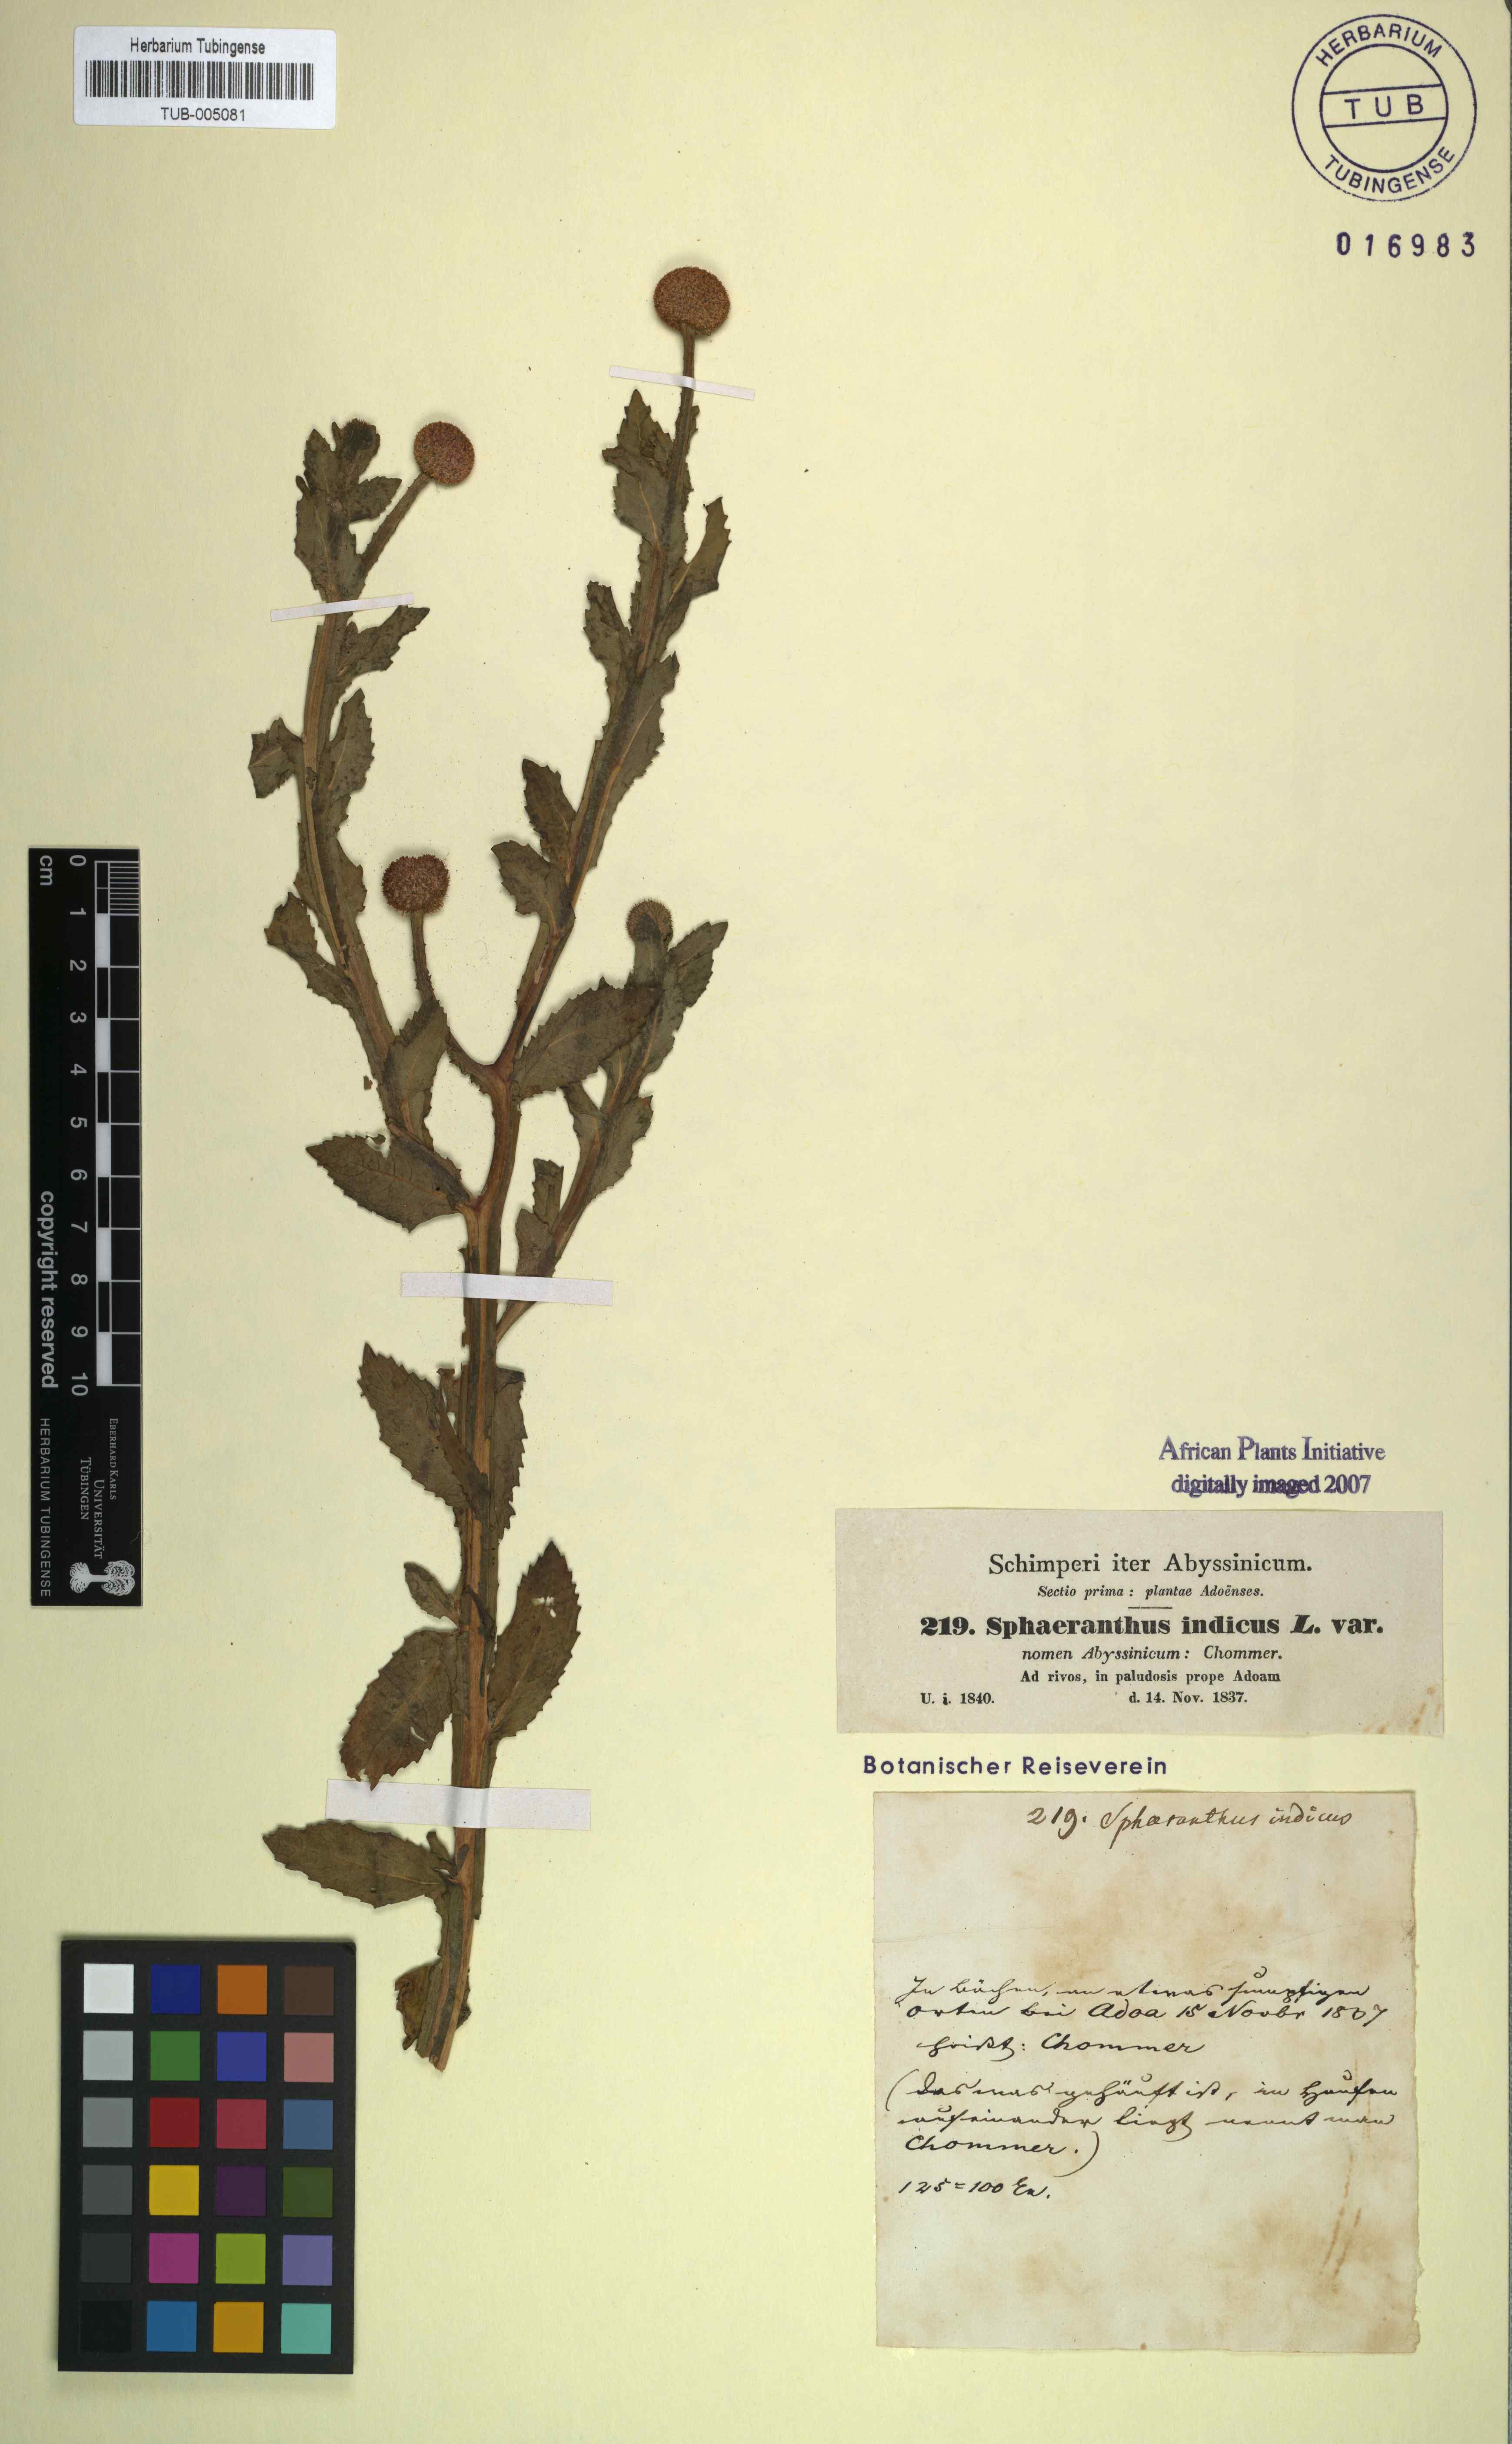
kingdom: Plantae
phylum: Tracheophyta
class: Magnoliopsida
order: Asterales
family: Asteraceae
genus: Sphaeranthus
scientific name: Sphaeranthus indicus
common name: East indian globe thistle
